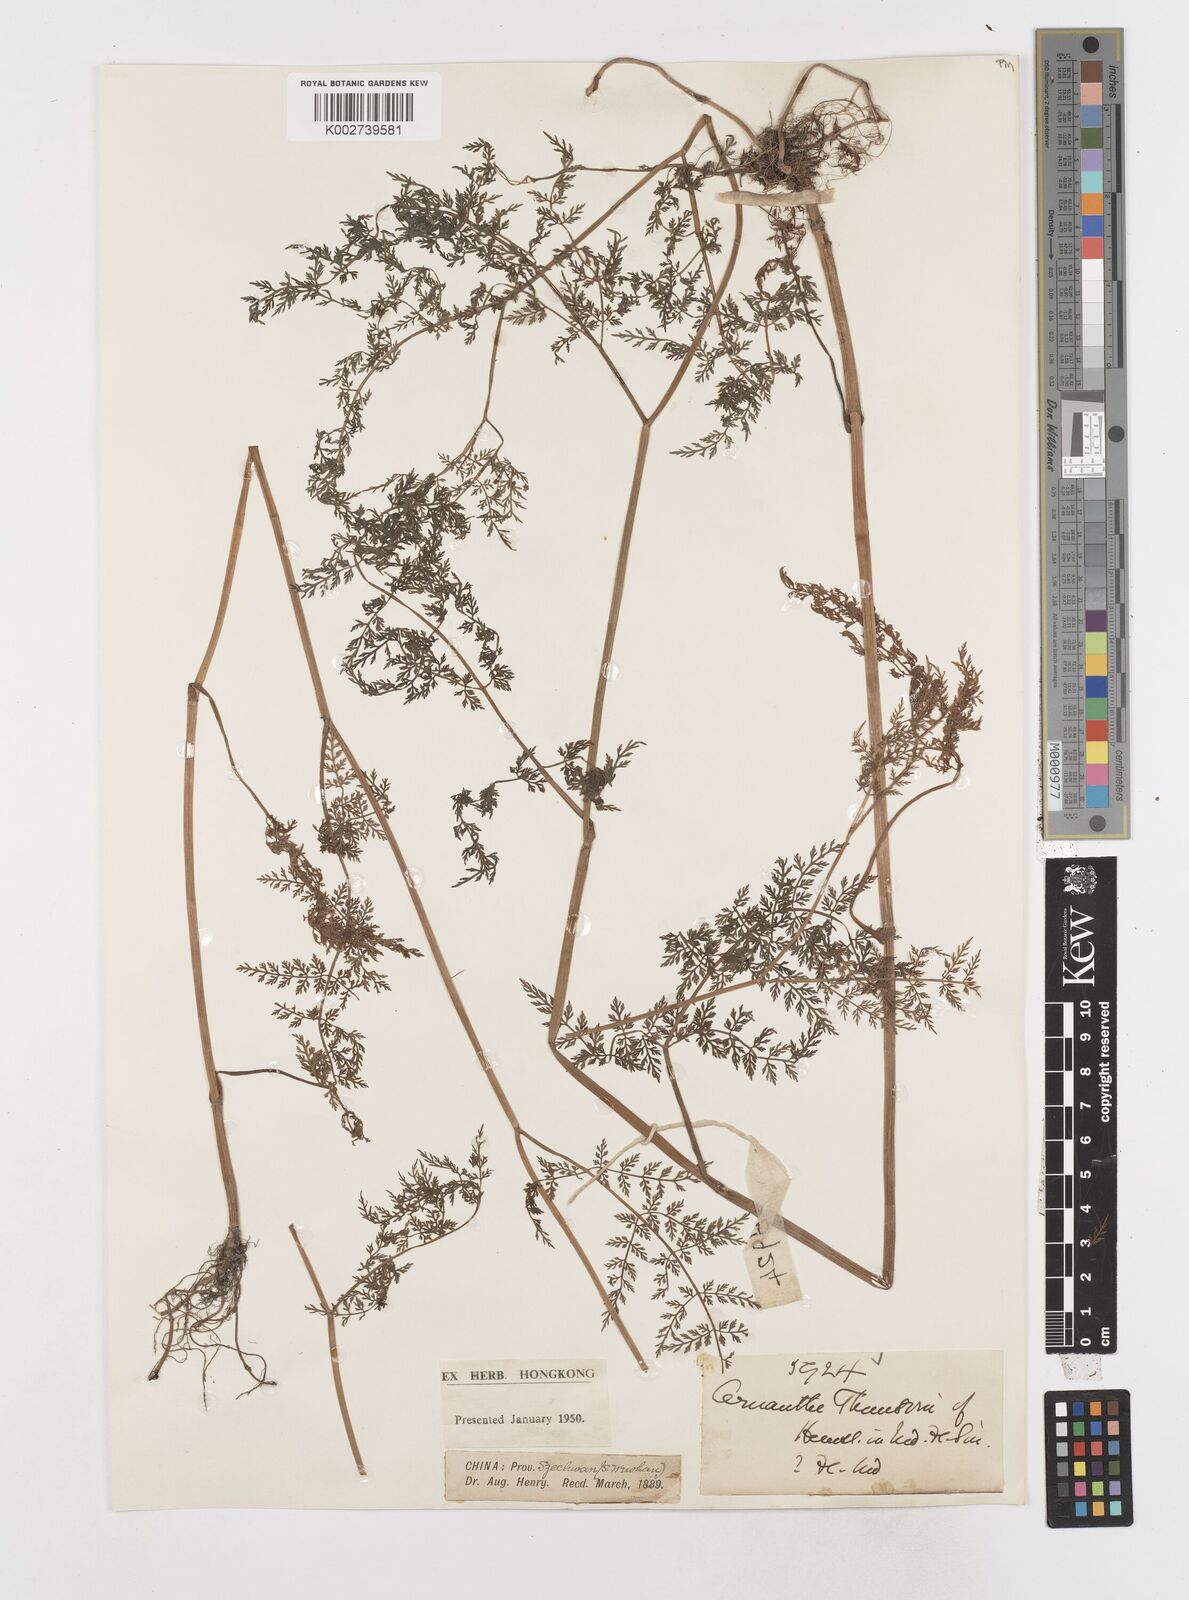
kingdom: Plantae
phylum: Tracheophyta
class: Magnoliopsida
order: Apiales
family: Apiaceae
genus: Oenanthe
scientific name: Oenanthe thomsonii
